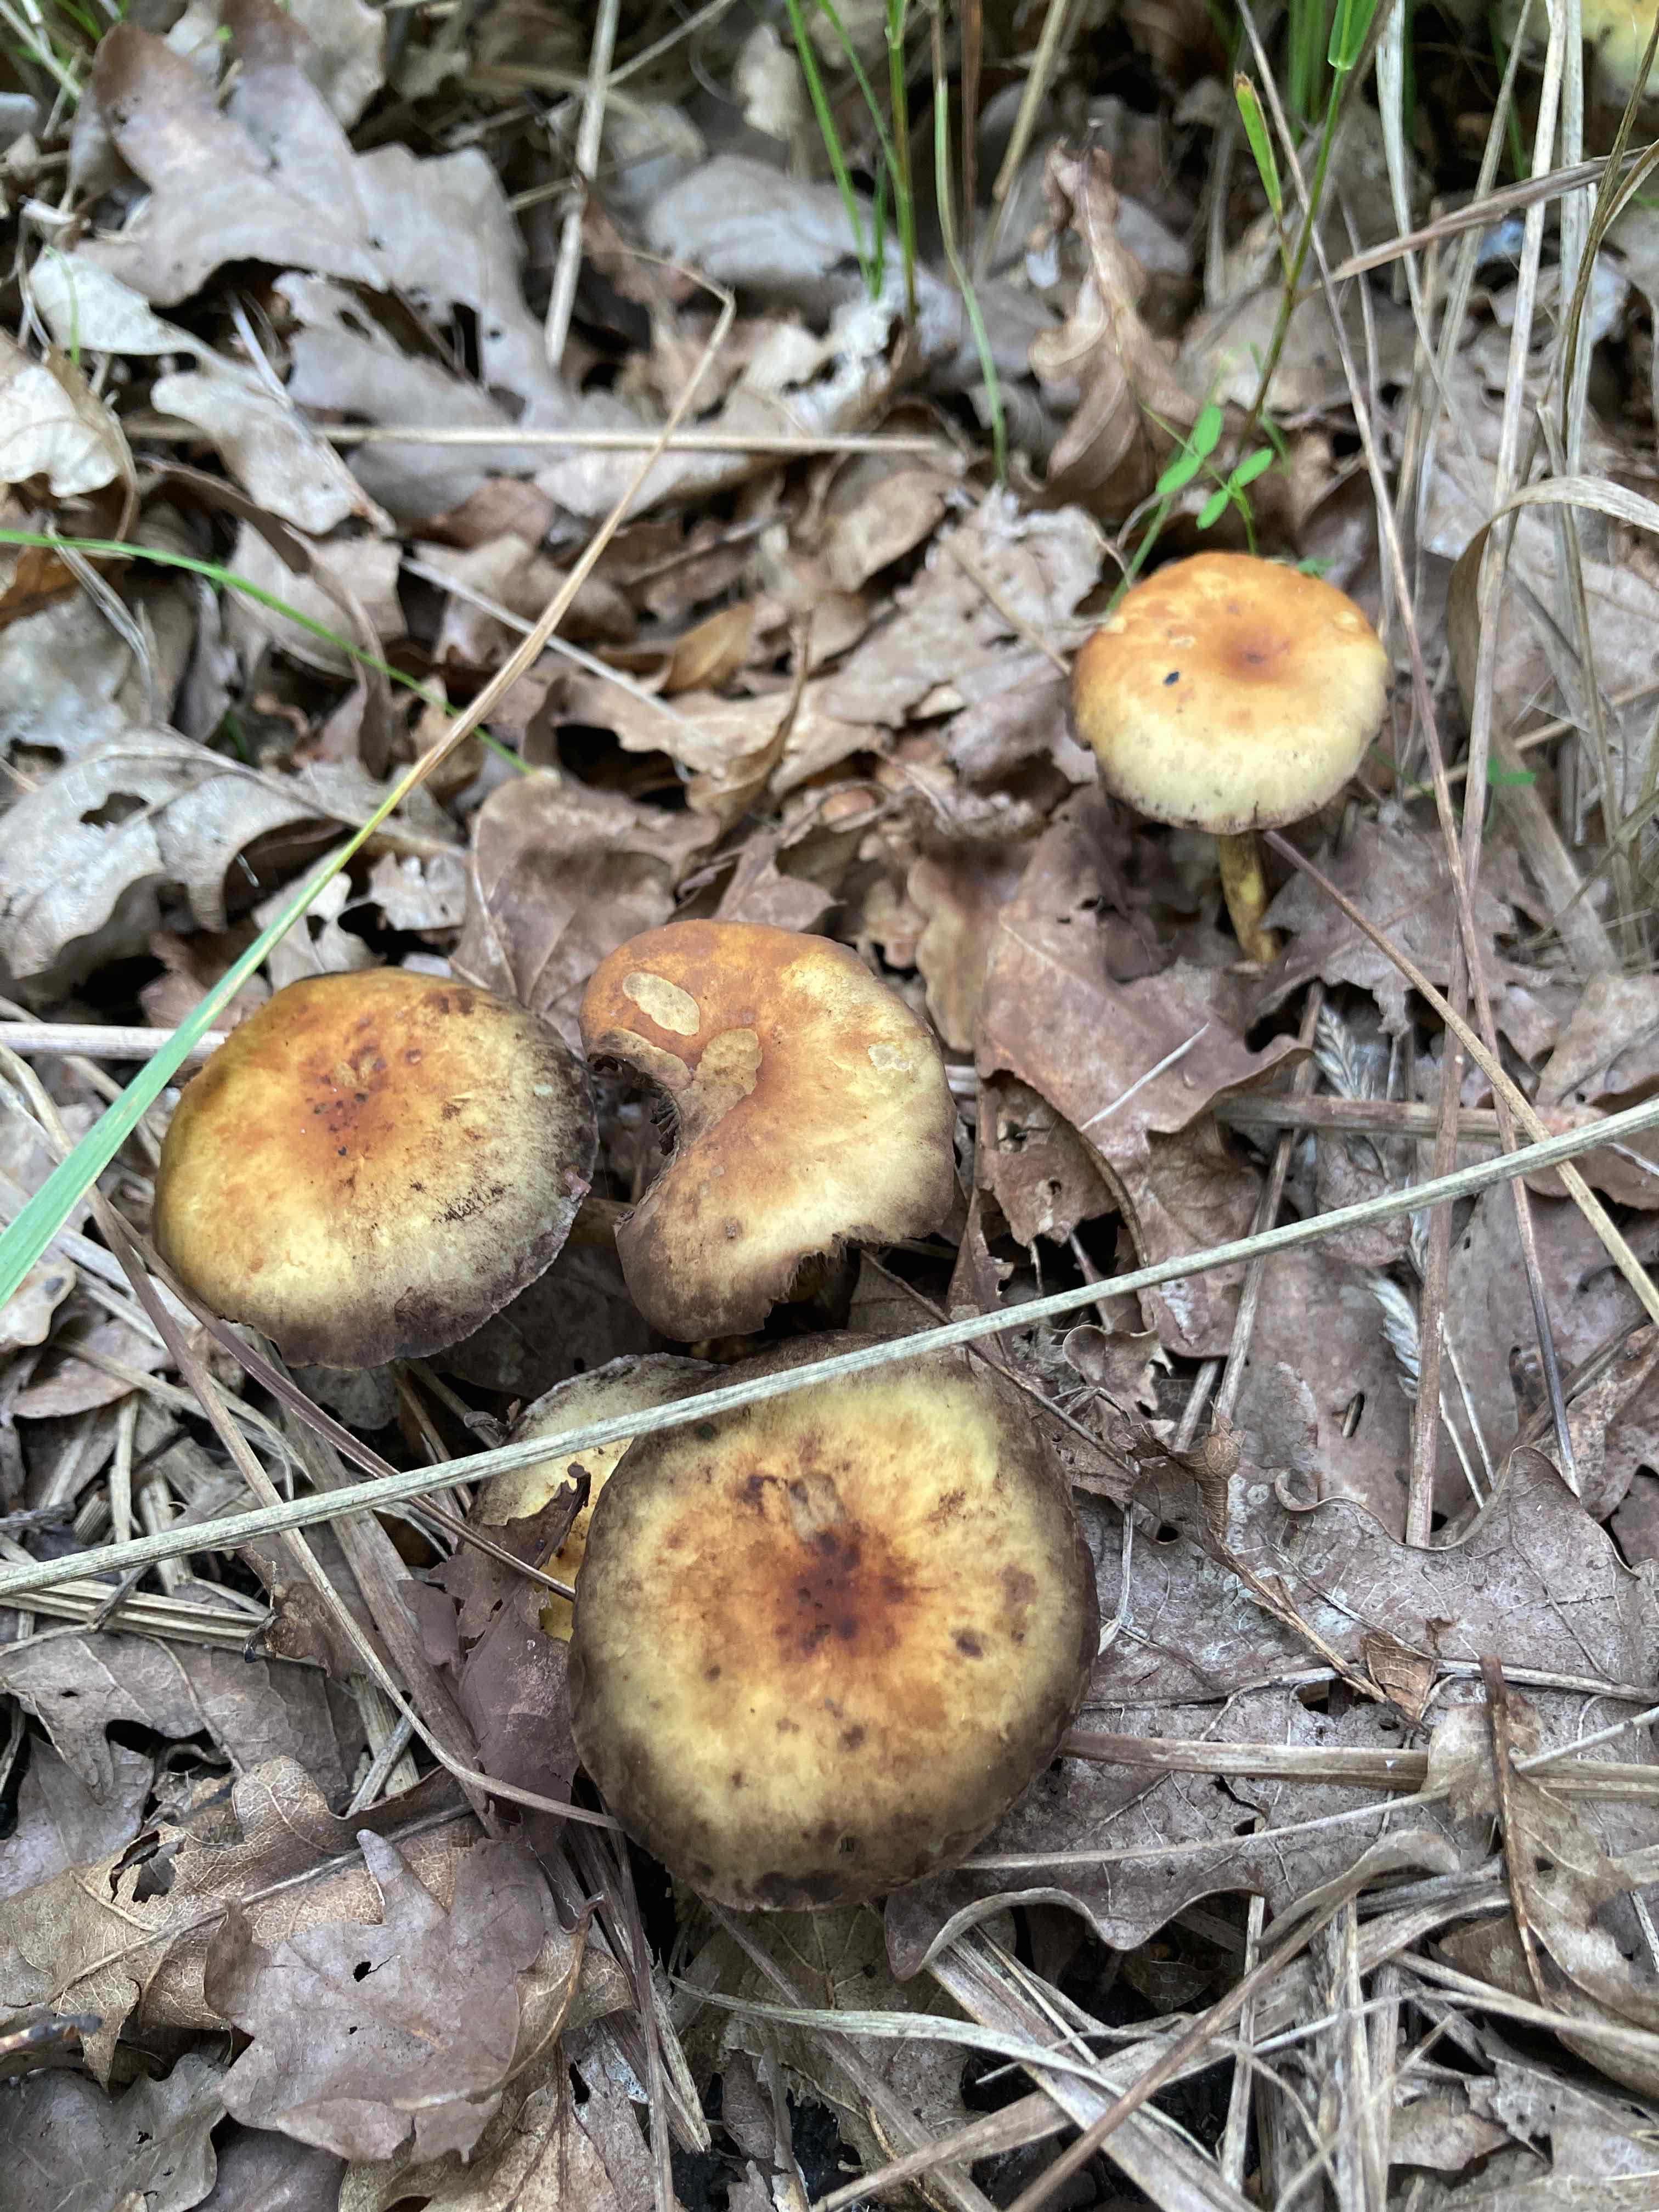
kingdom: Fungi
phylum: Basidiomycota
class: Agaricomycetes
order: Agaricales
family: Strophariaceae
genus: Hypholoma
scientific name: Hypholoma fasciculare
